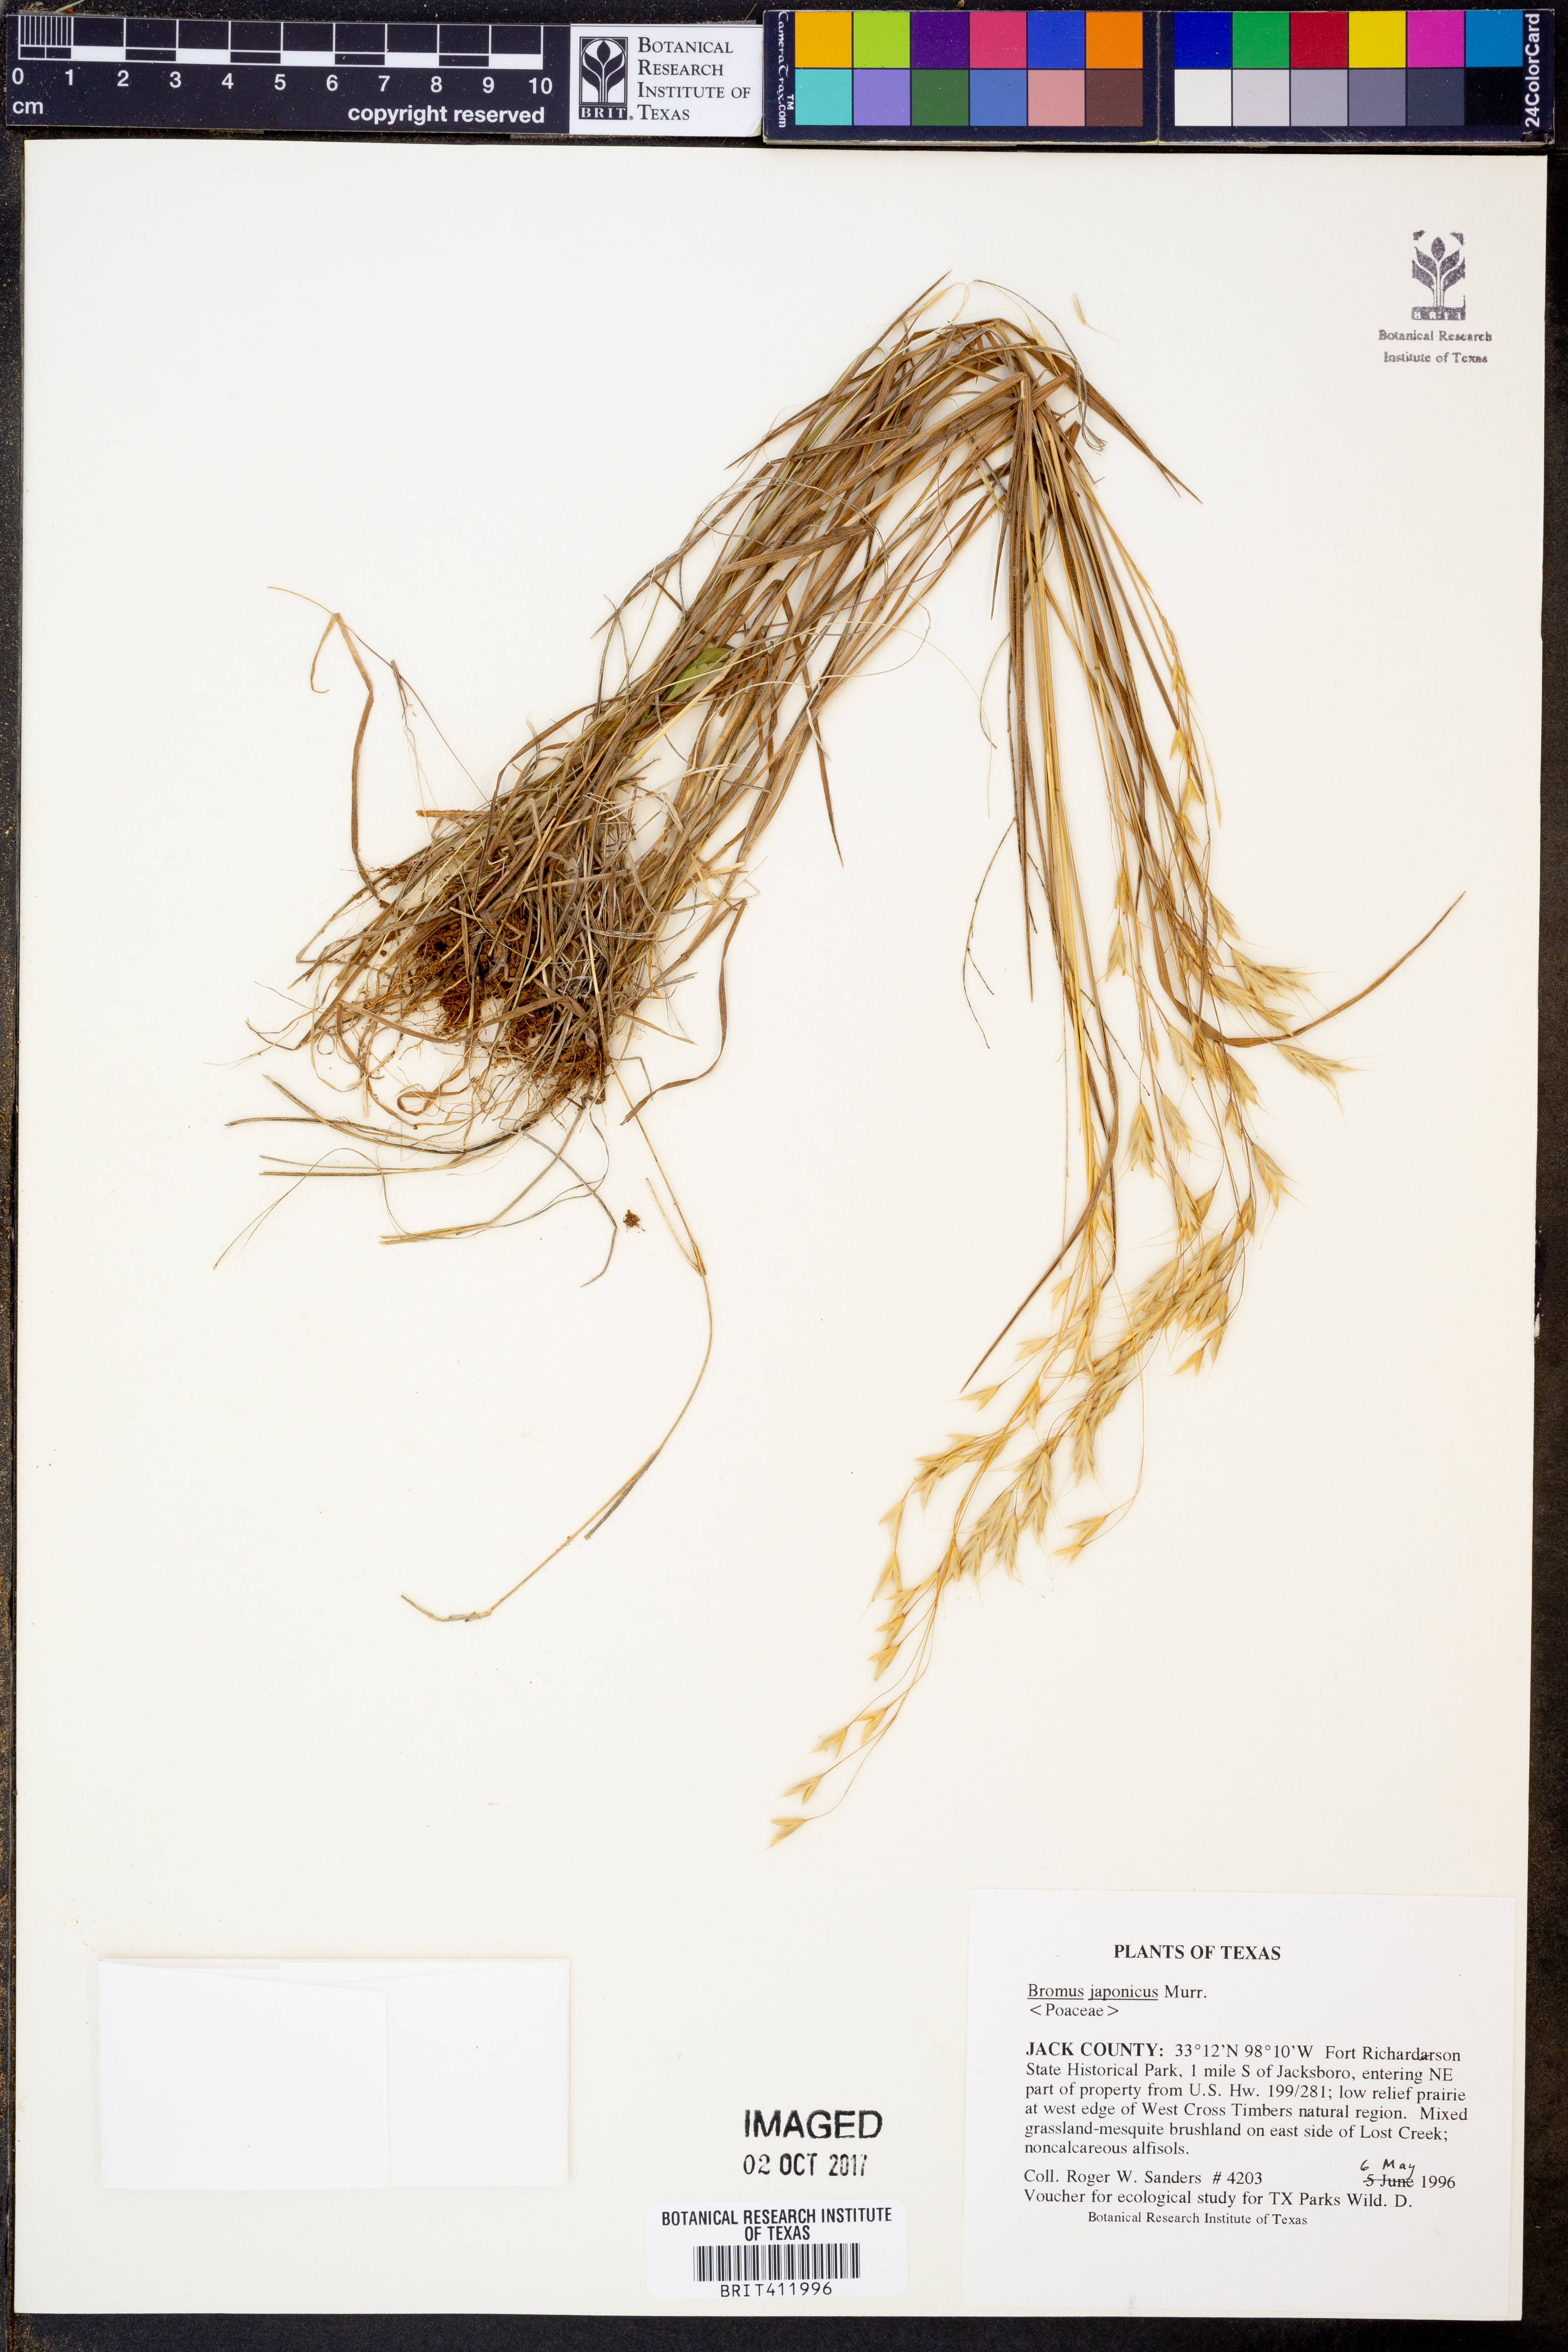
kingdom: Plantae
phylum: Tracheophyta
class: Liliopsida
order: Poales
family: Poaceae
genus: Bromus
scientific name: Bromus japonicus
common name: Japanese brome
